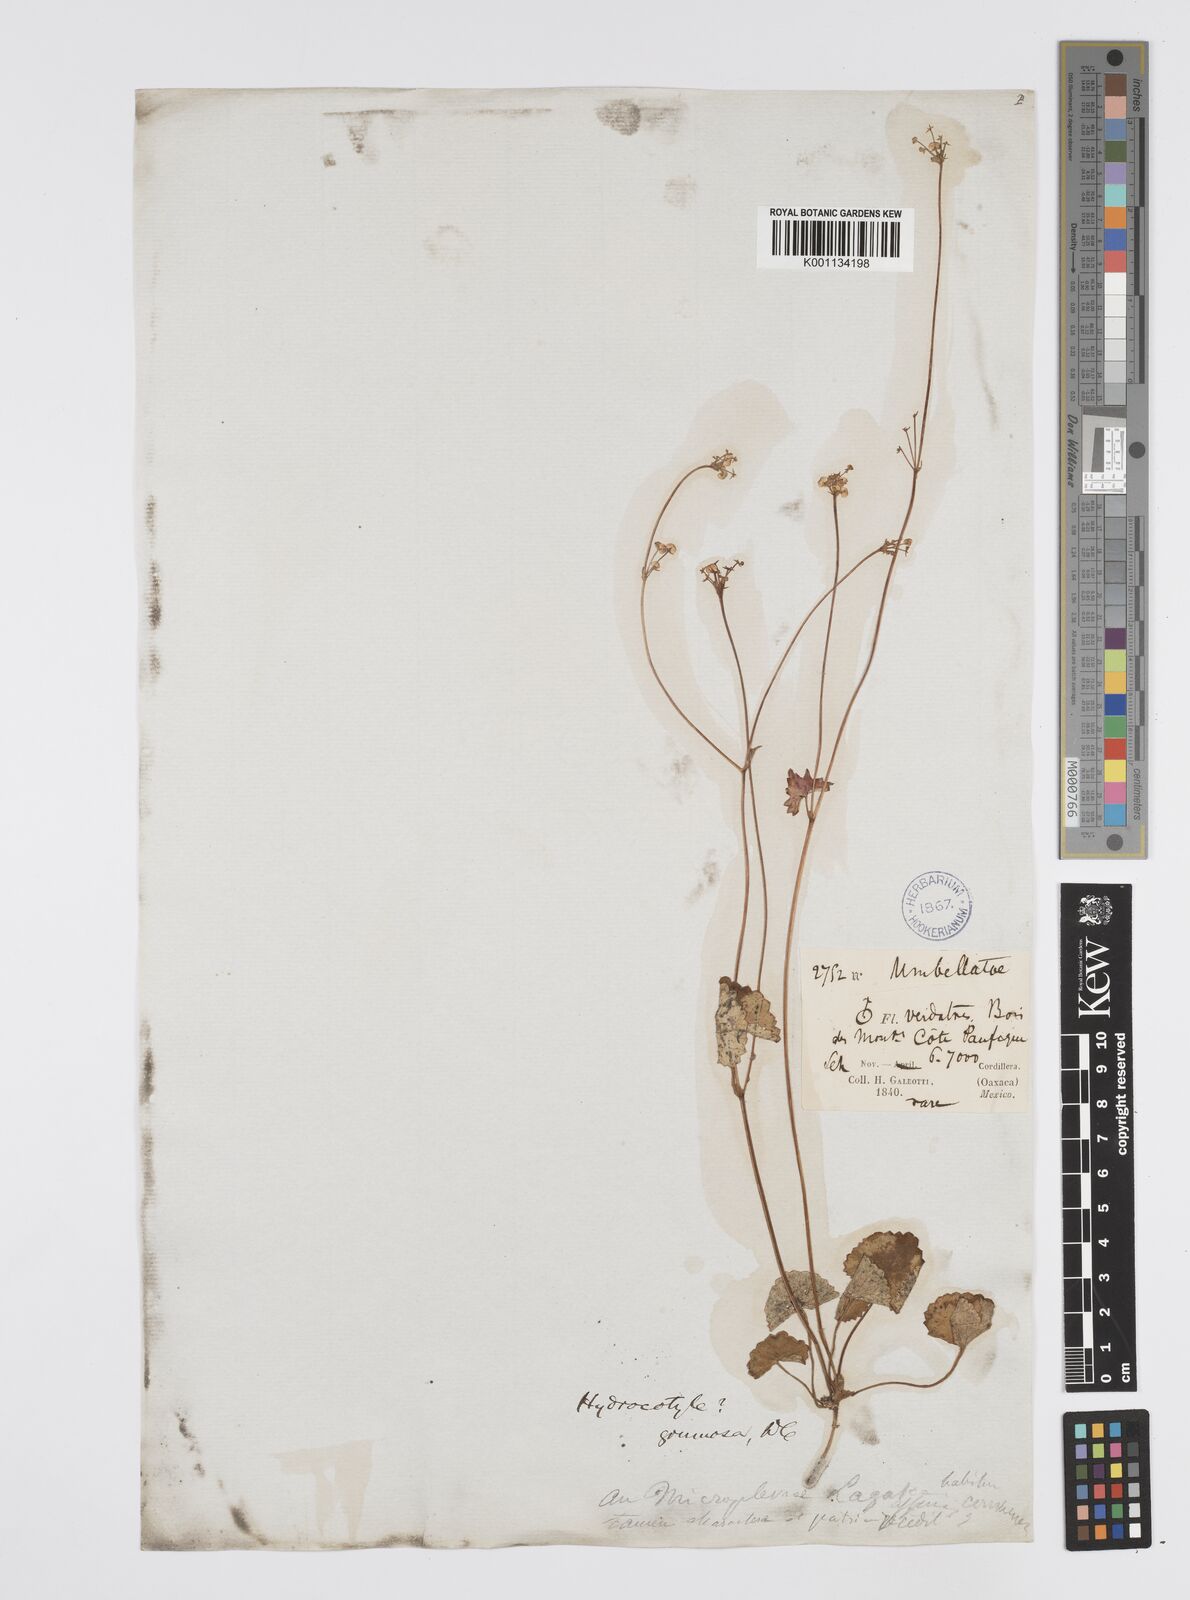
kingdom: Plantae
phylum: Tracheophyta
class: Magnoliopsida
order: Apiales
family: Apiaceae
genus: Micropleura
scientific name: Micropleura renifolia
